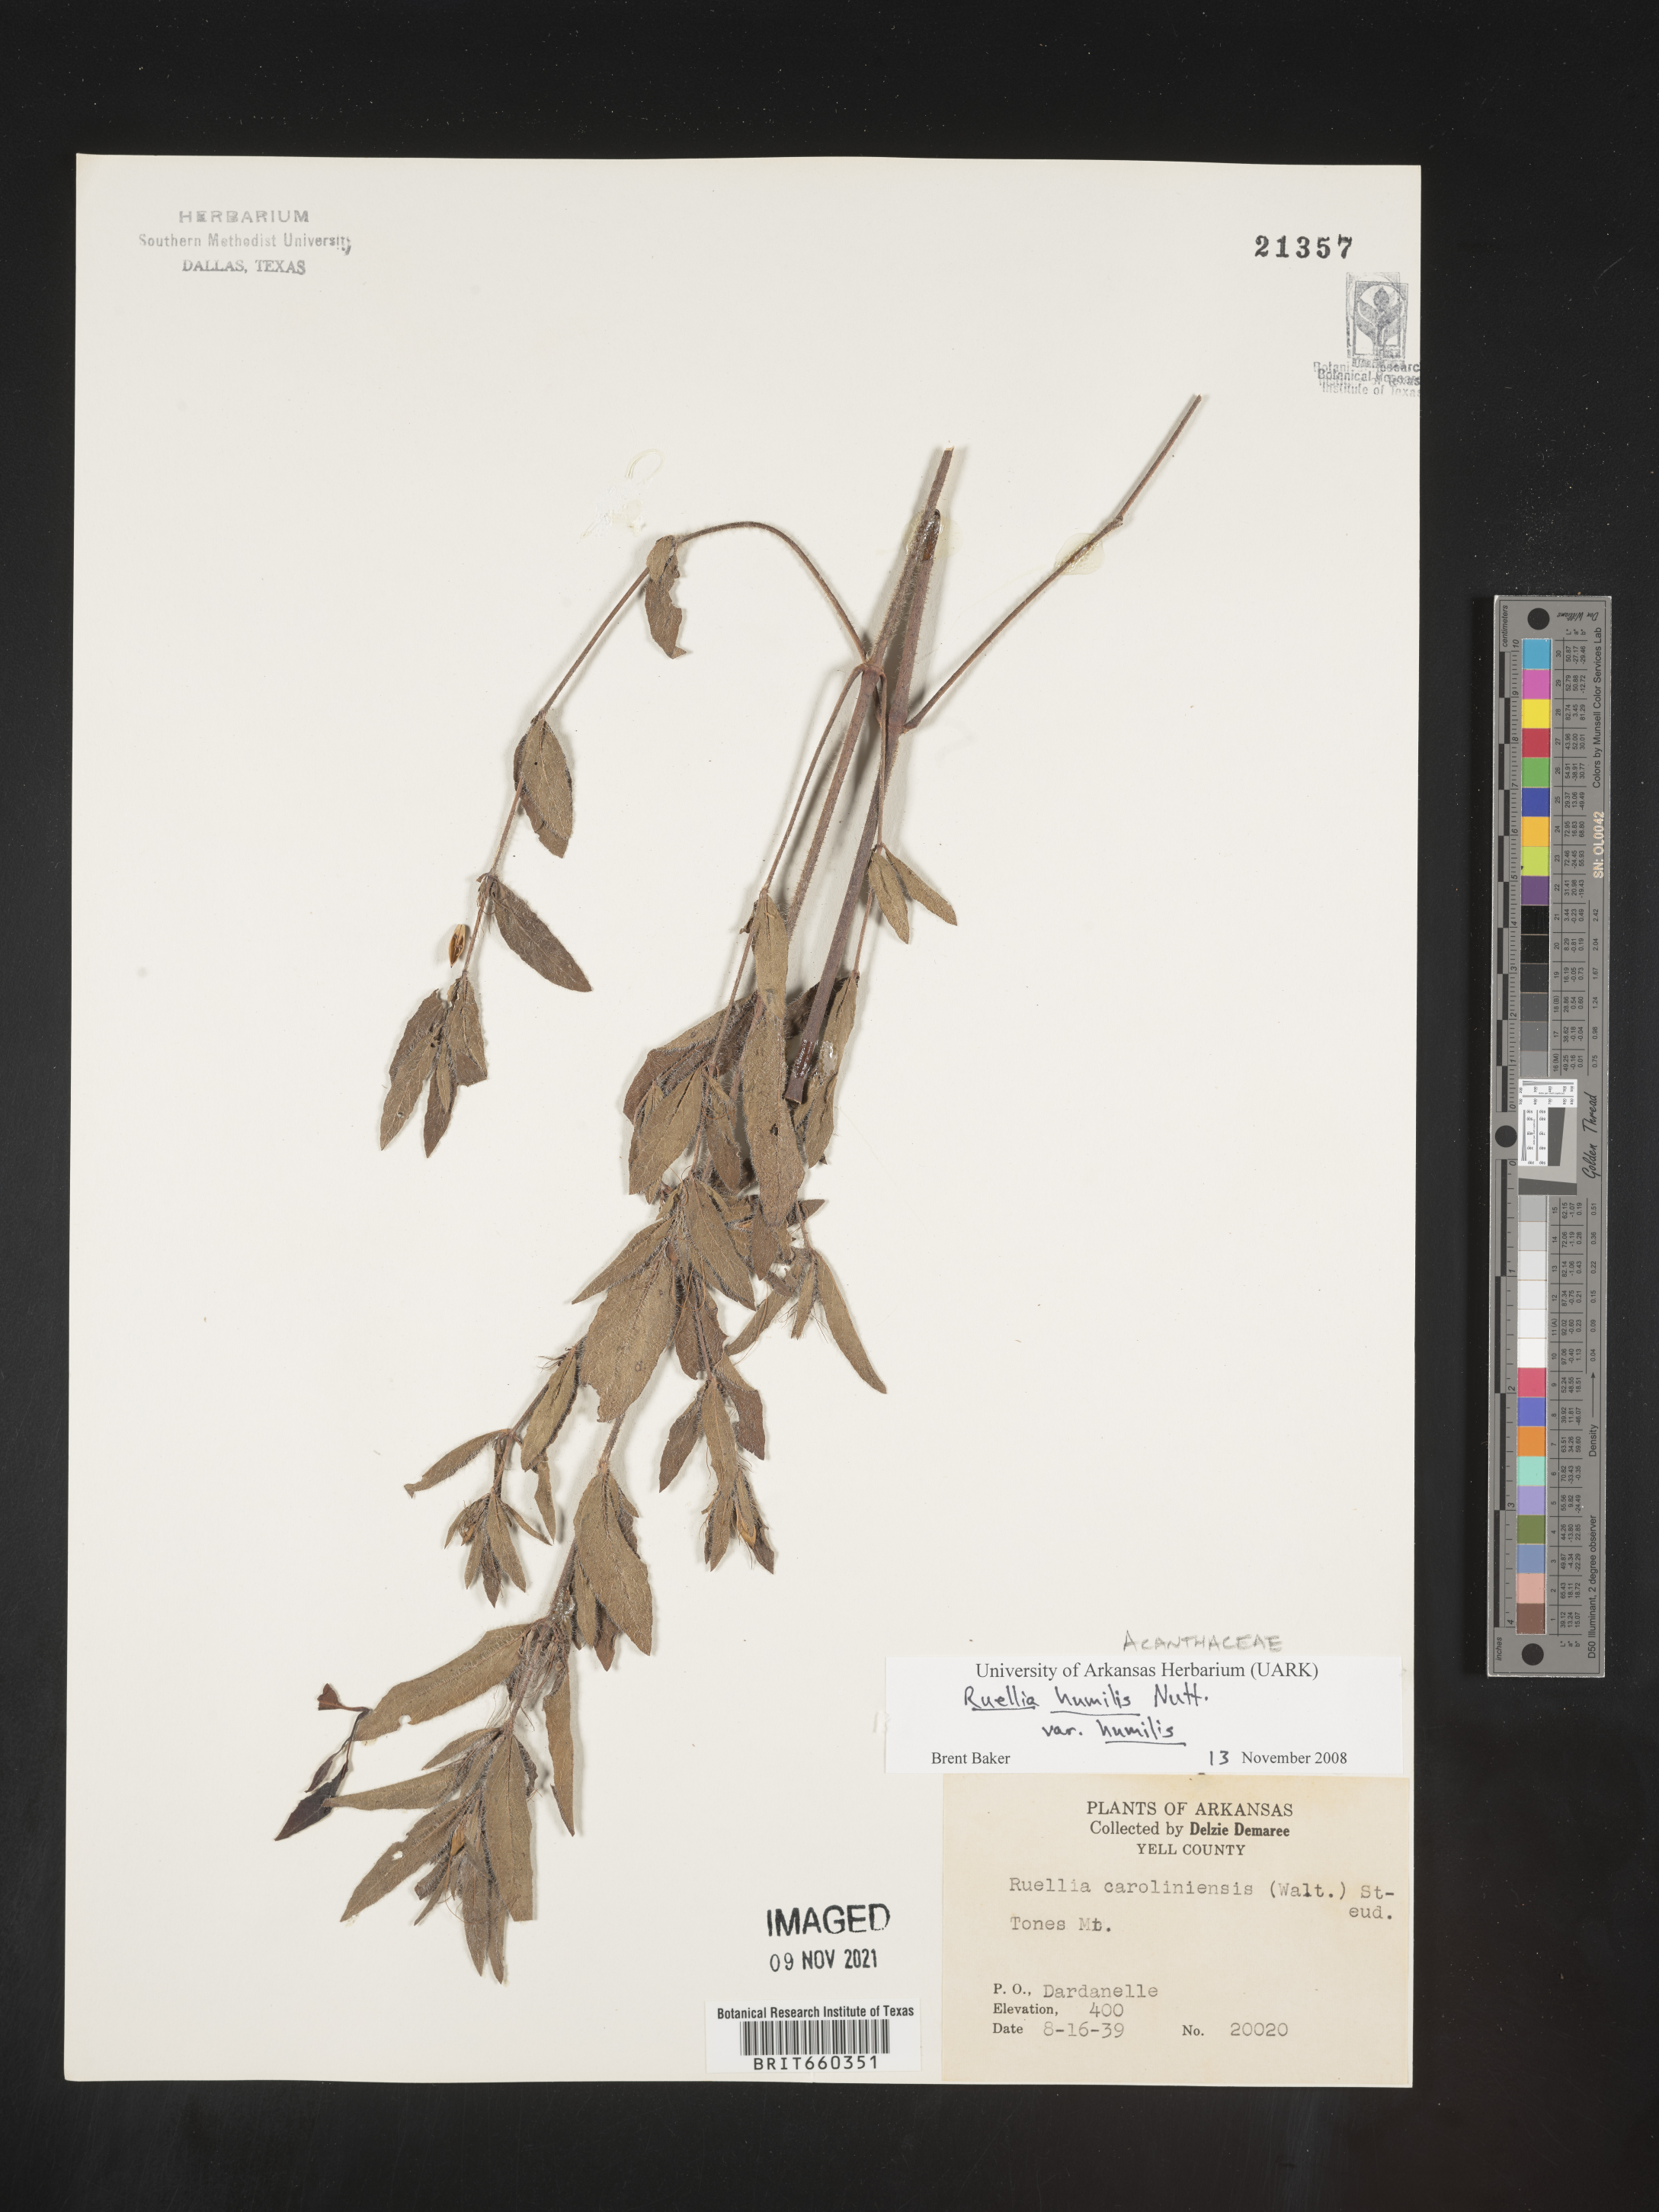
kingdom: Plantae
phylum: Tracheophyta
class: Magnoliopsida
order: Lamiales
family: Acanthaceae
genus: Ruellia
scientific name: Ruellia humilis
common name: Fringe-leaf ruellia
